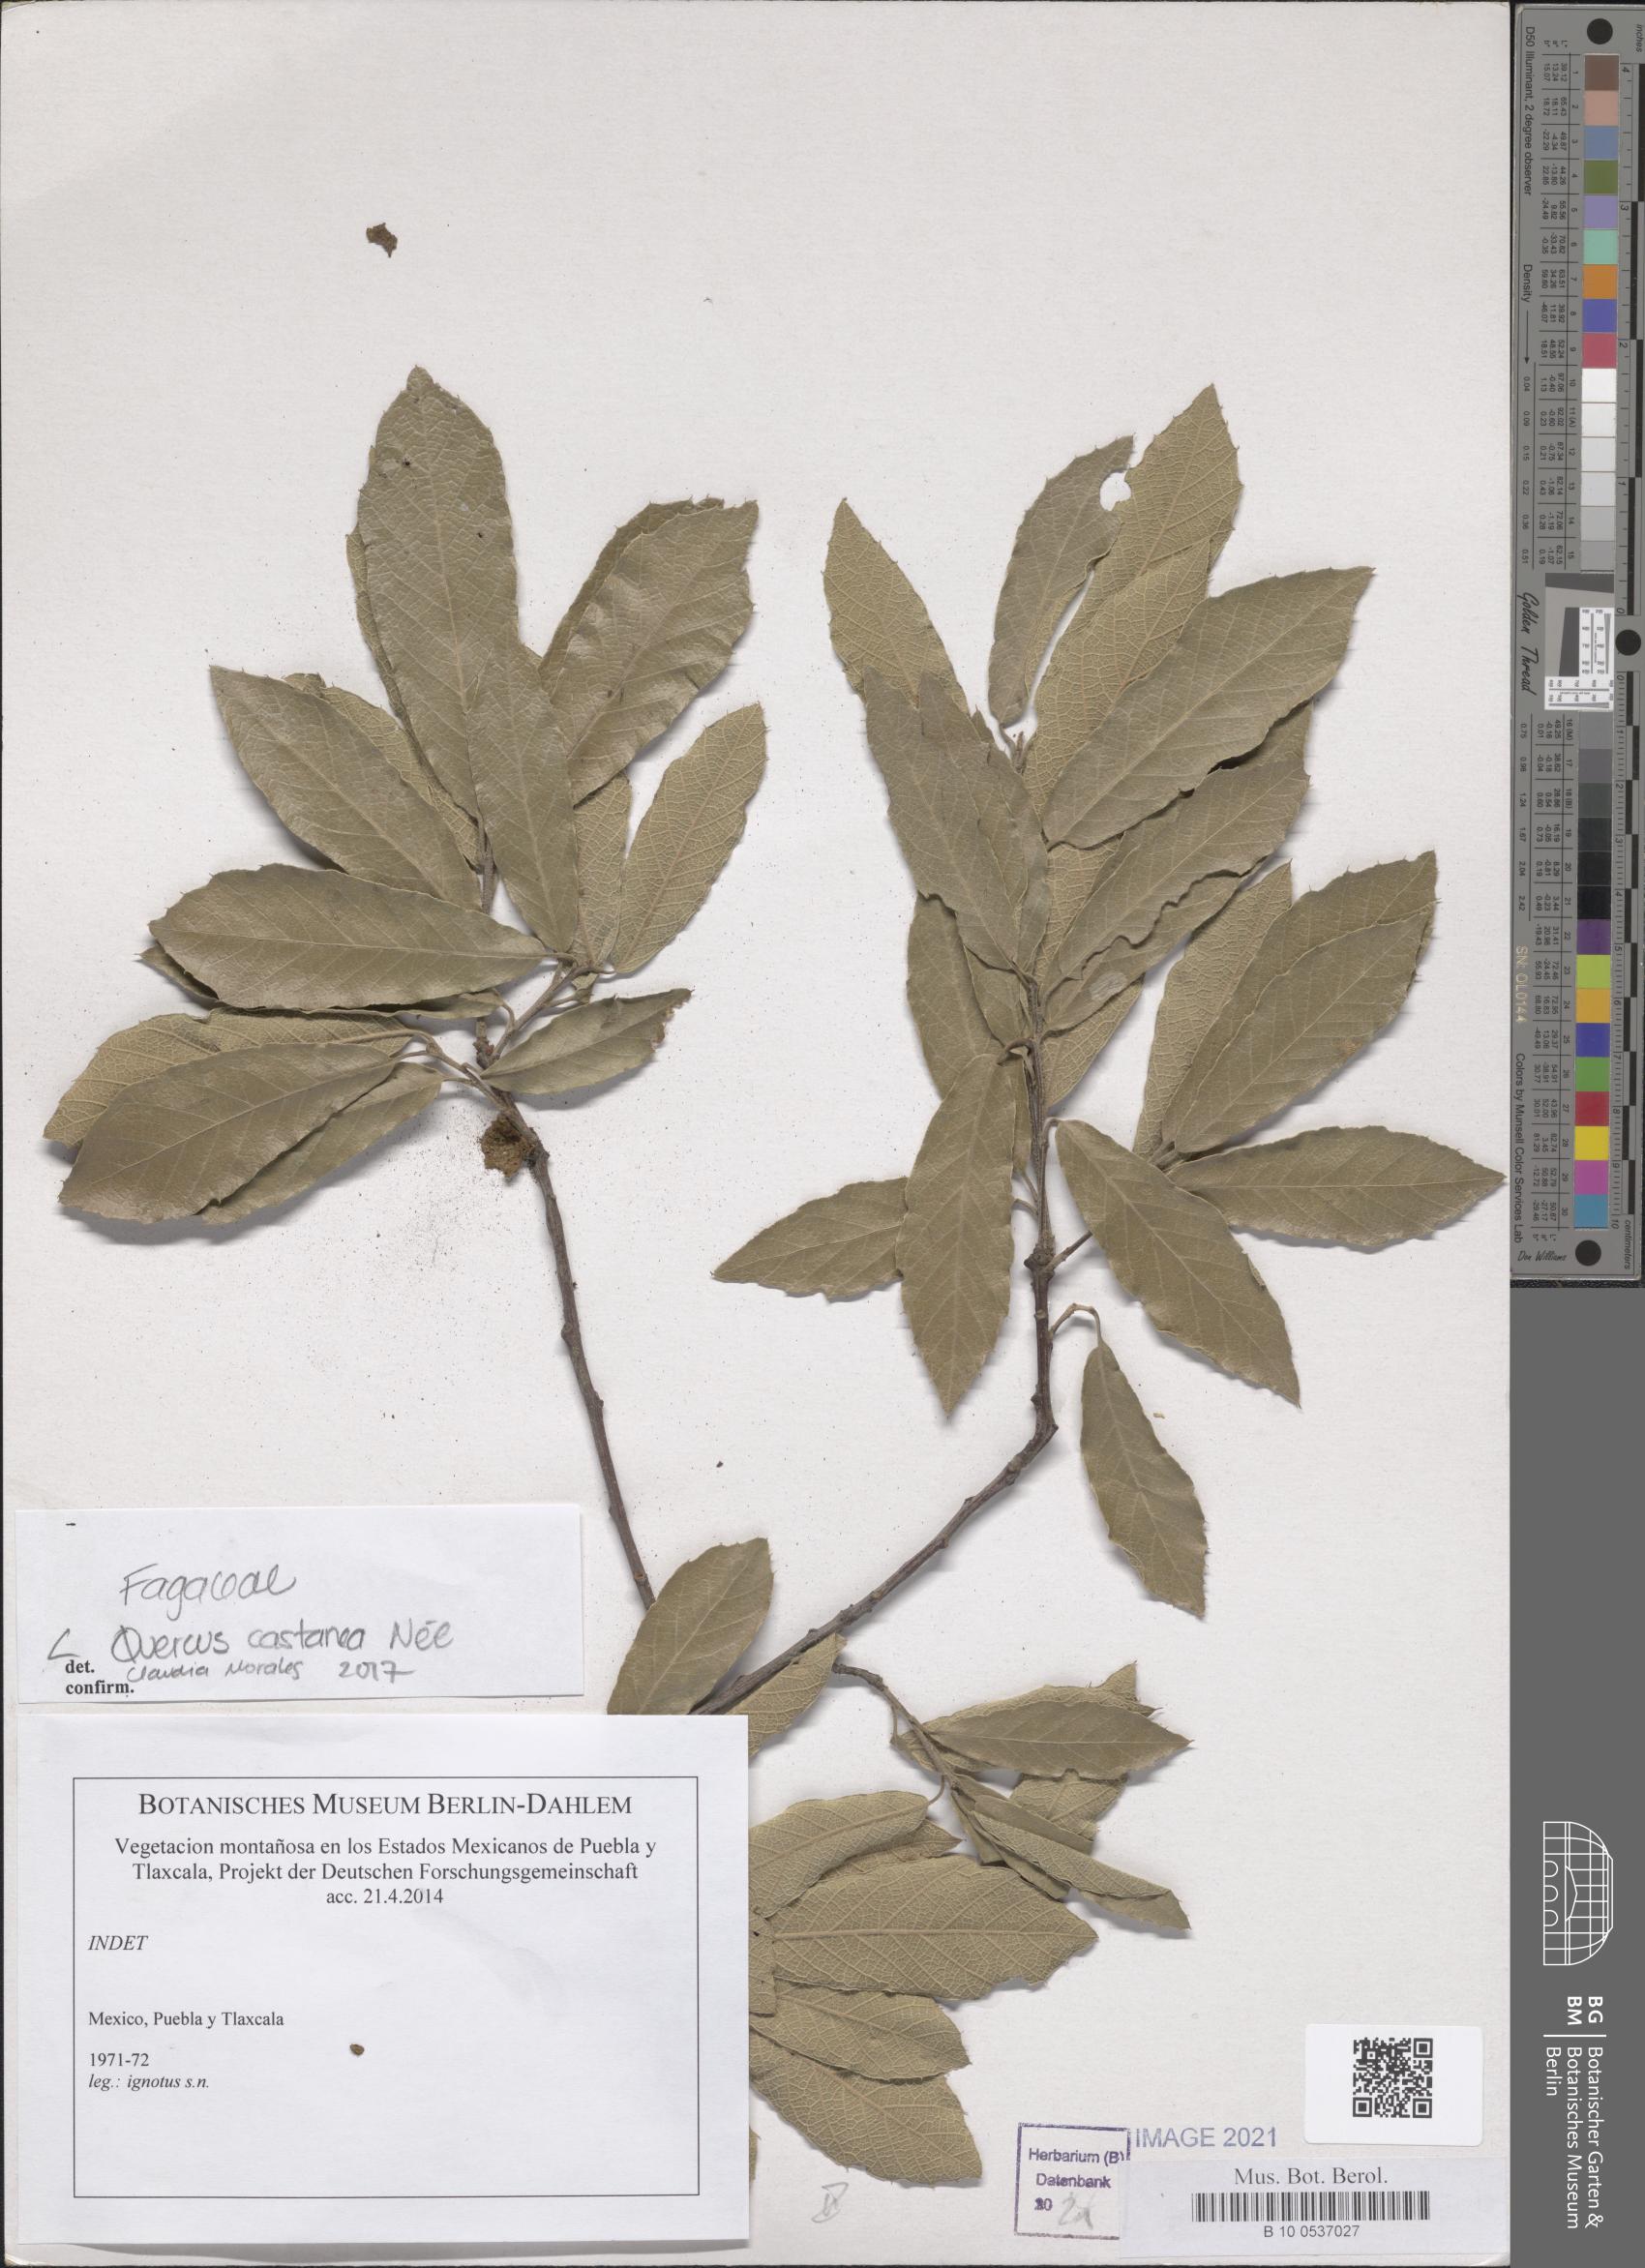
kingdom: Plantae
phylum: Tracheophyta
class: Magnoliopsida
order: Fagales
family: Fagaceae
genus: Quercus
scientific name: Quercus castanea
